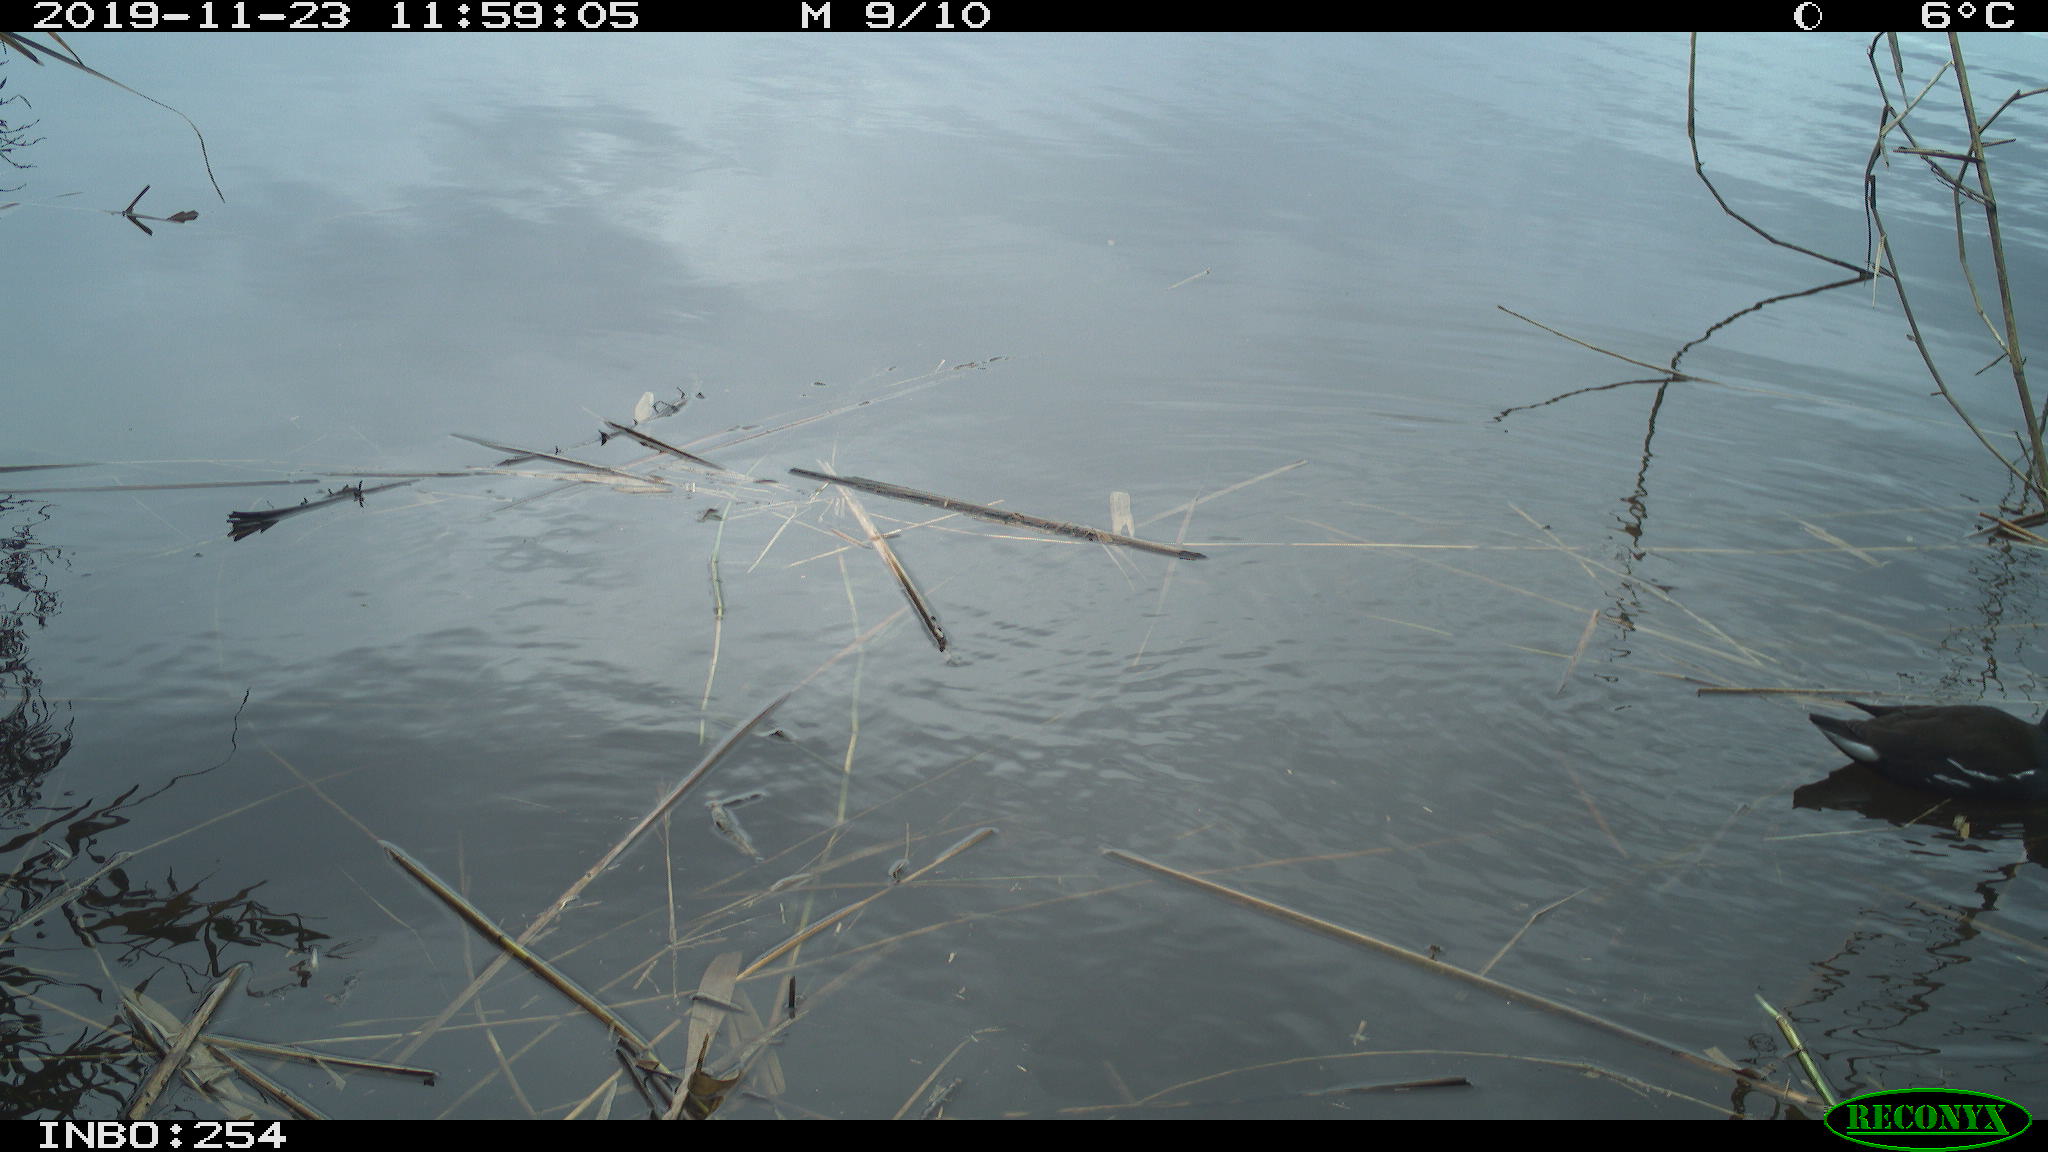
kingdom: Animalia
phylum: Chordata
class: Aves
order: Gruiformes
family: Rallidae
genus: Gallinula
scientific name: Gallinula chloropus
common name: Common moorhen
